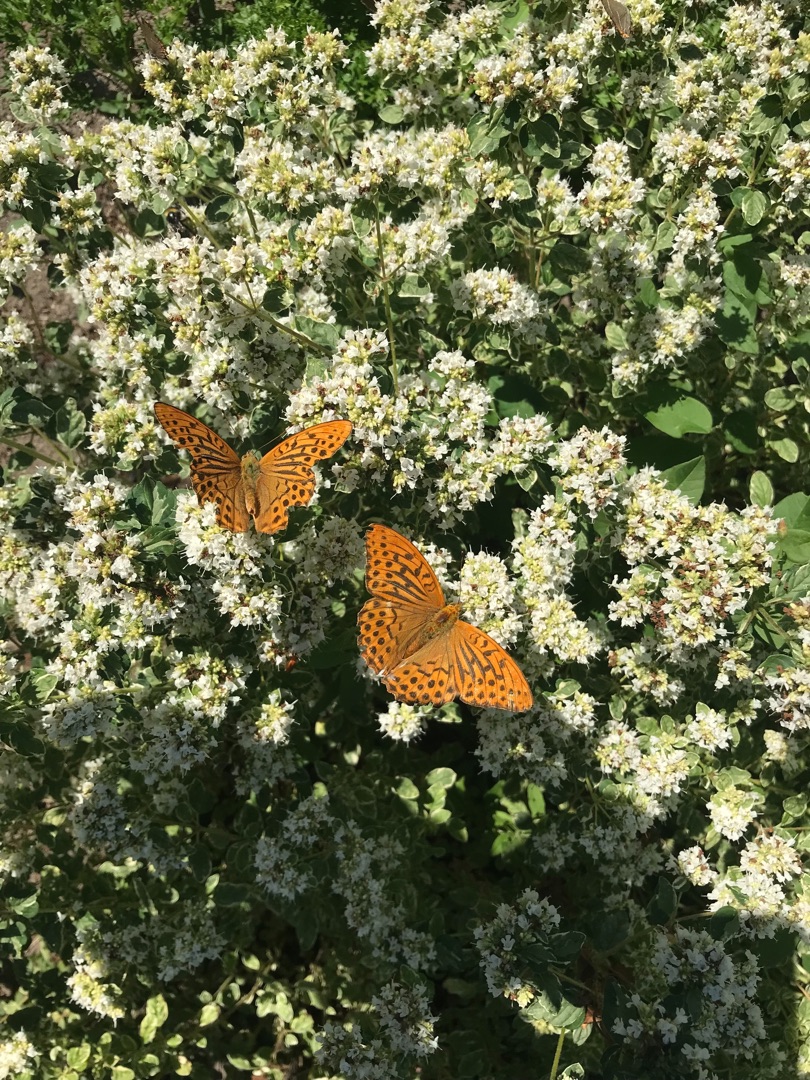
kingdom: Animalia
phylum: Arthropoda
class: Insecta
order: Lepidoptera
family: Nymphalidae
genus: Argynnis
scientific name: Argynnis paphia
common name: Kejserkåbe
